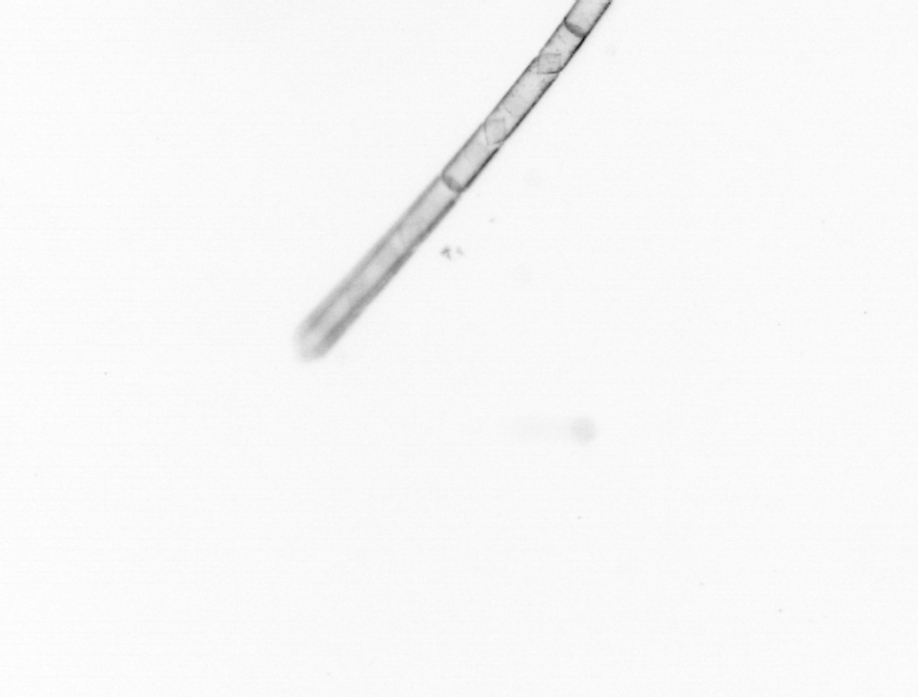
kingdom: Chromista
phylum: Ochrophyta
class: Bacillariophyceae
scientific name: Bacillariophyceae
